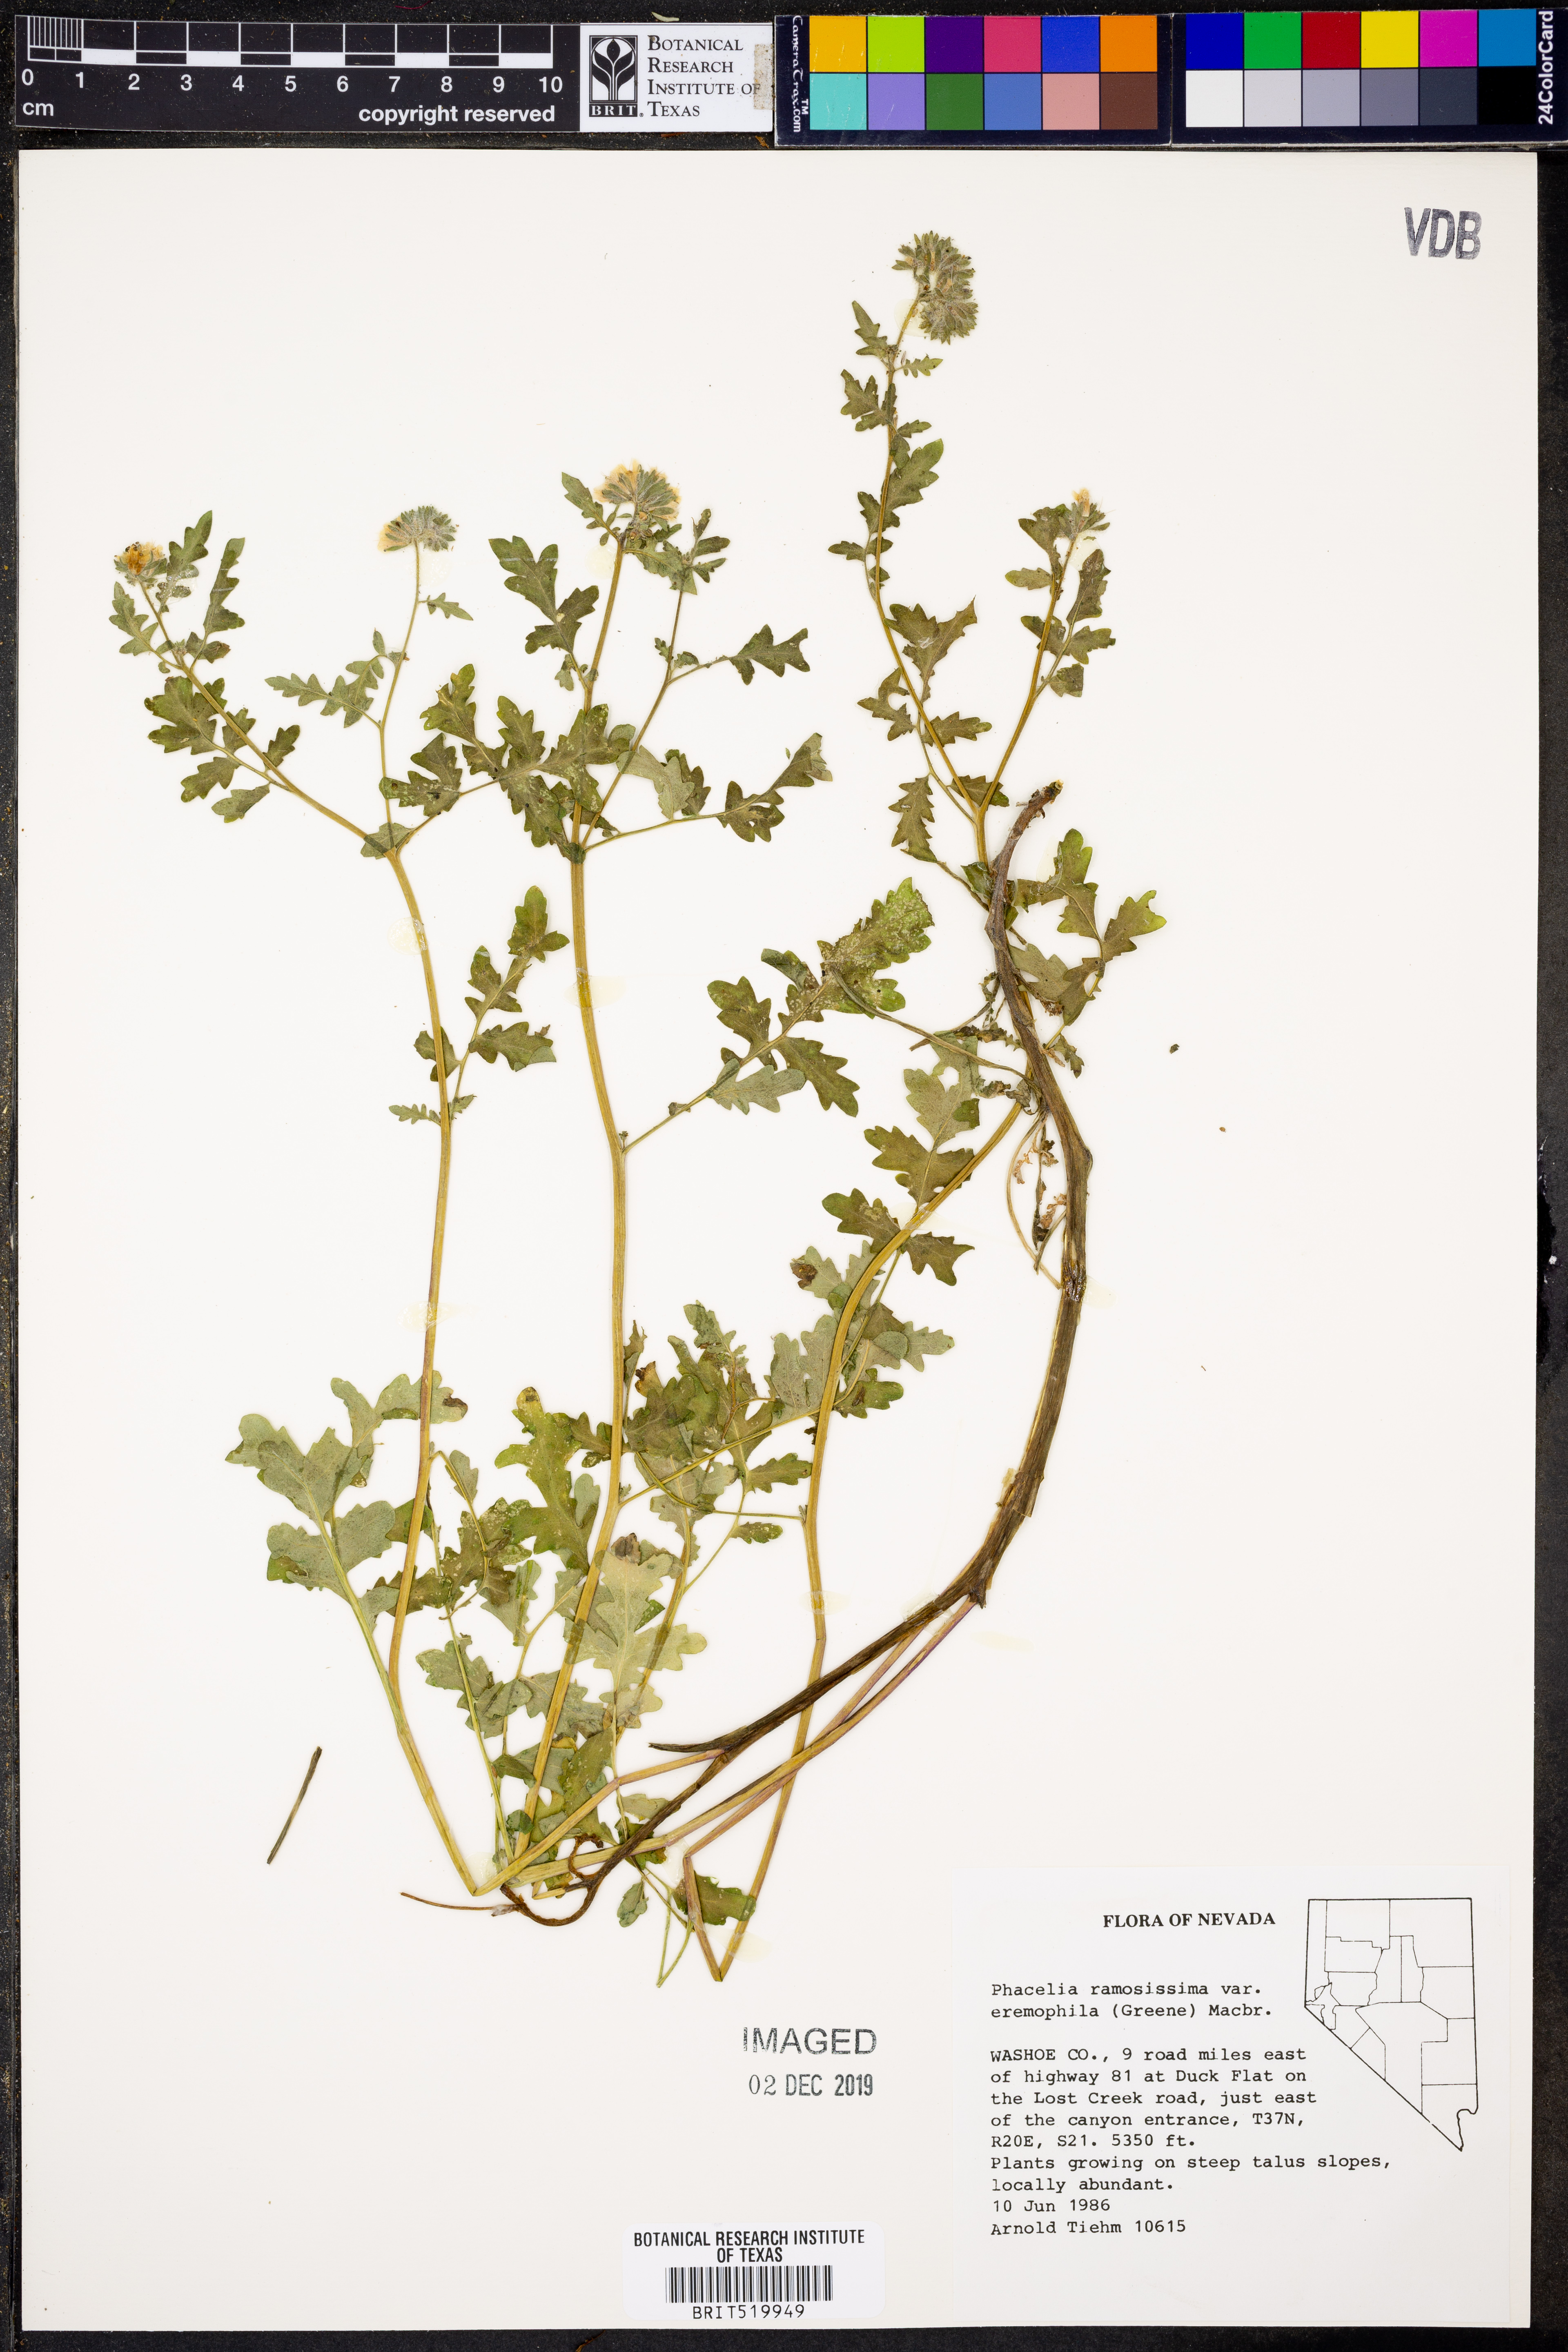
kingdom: Plantae
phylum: Tracheophyta
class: Magnoliopsida
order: Boraginales
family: Hydrophyllaceae
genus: Phacelia
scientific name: Phacelia ramosissima
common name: Branching phacelia
